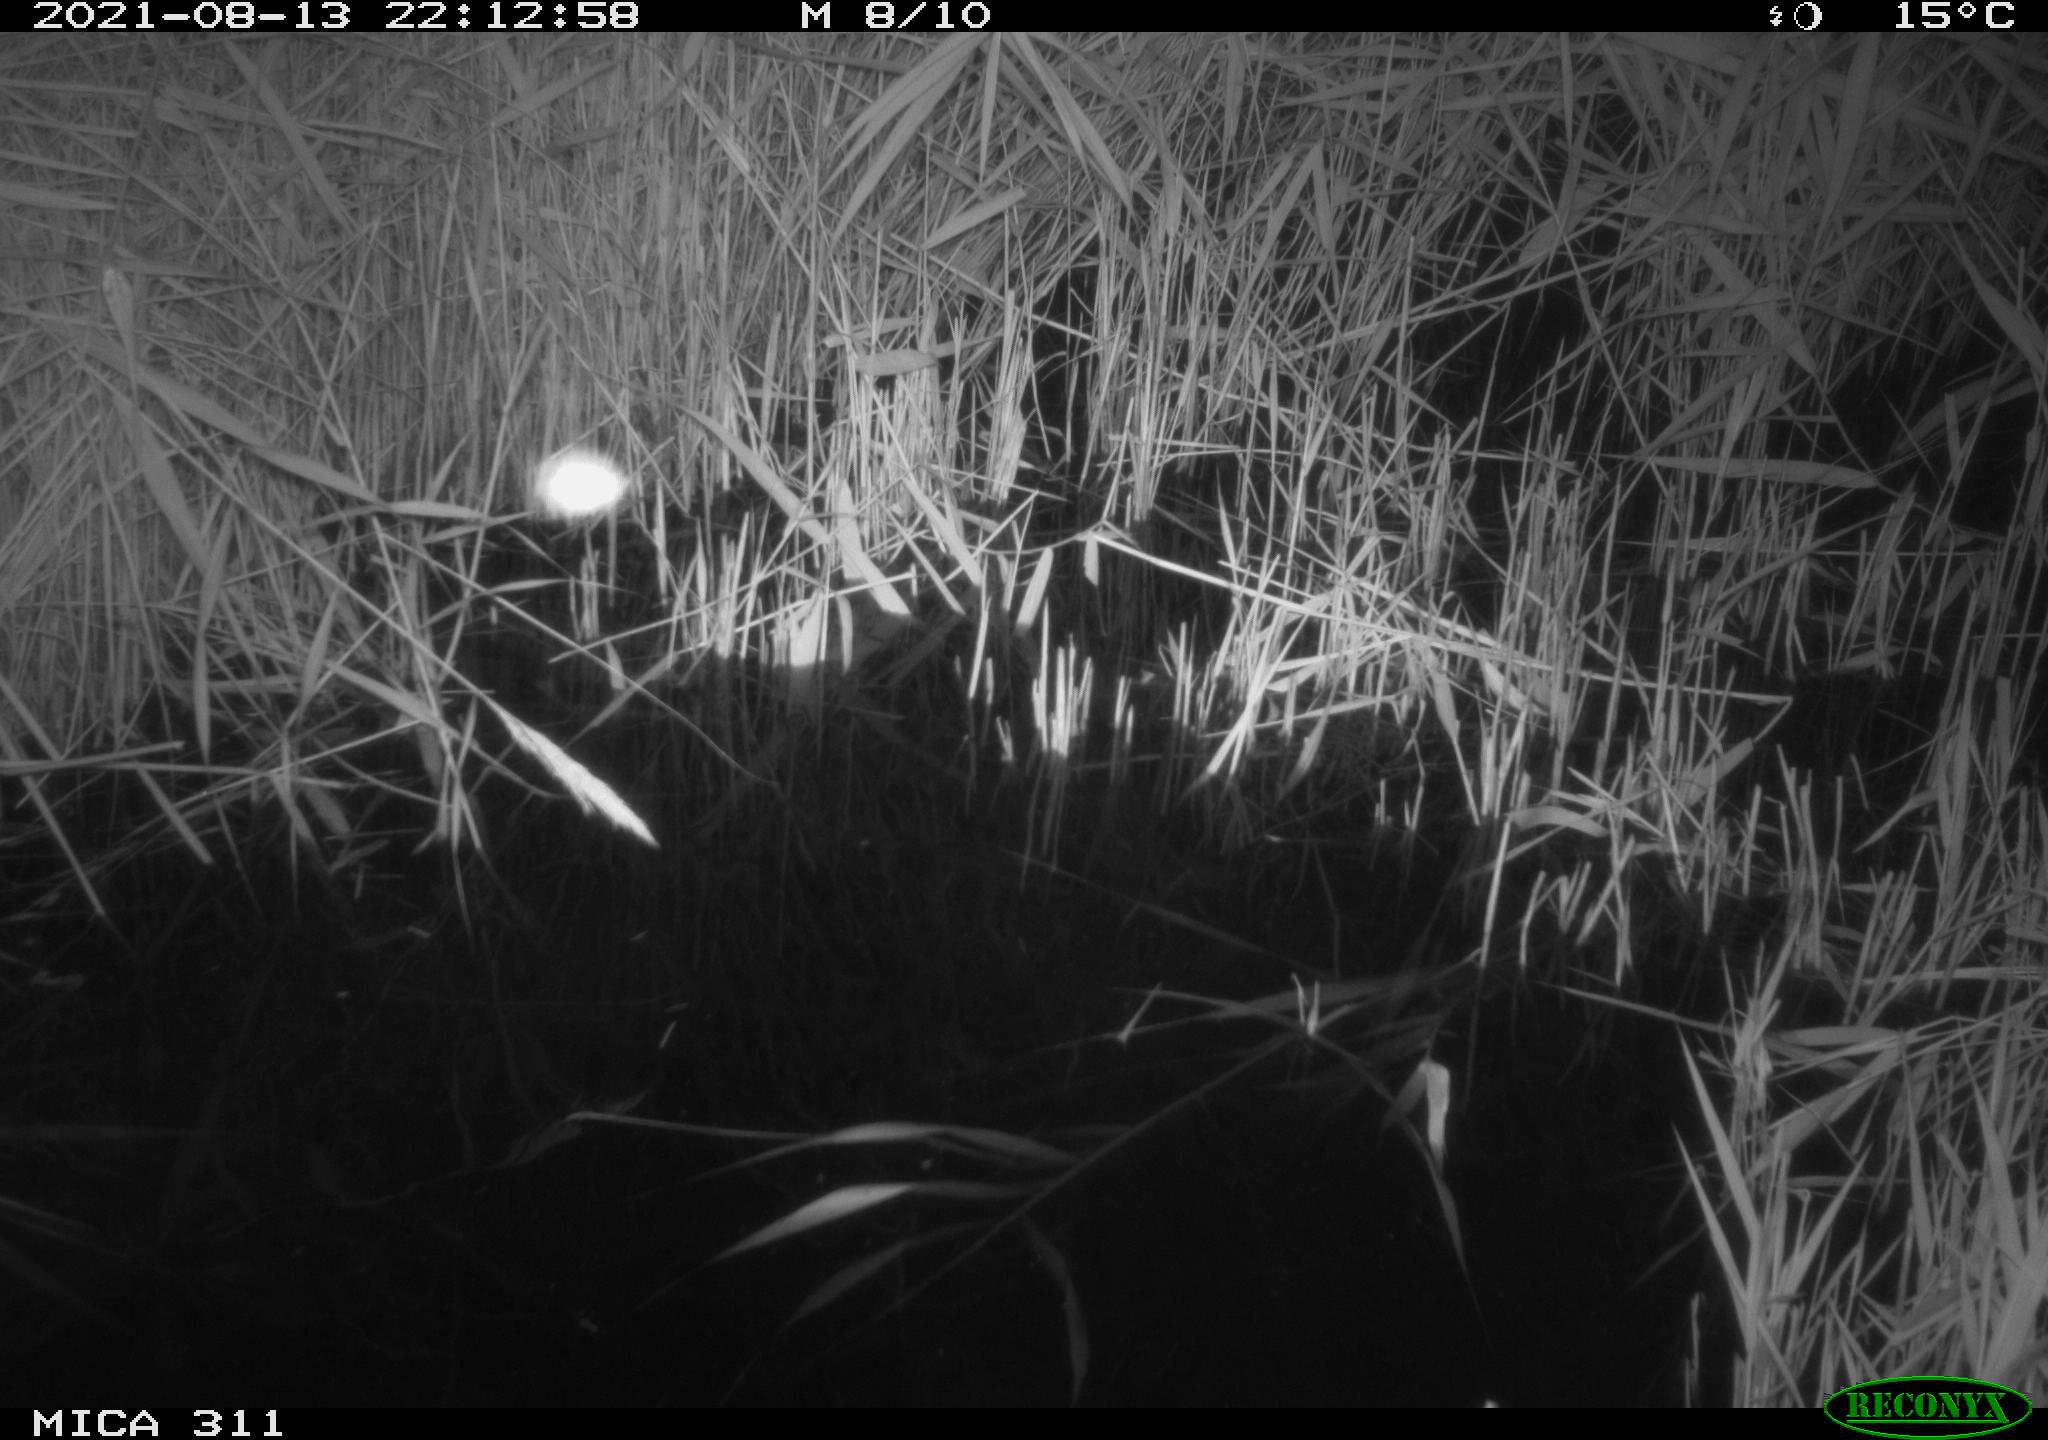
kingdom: Animalia
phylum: Chordata
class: Mammalia
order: Rodentia
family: Muridae
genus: Rattus
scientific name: Rattus norvegicus
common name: Brown rat
